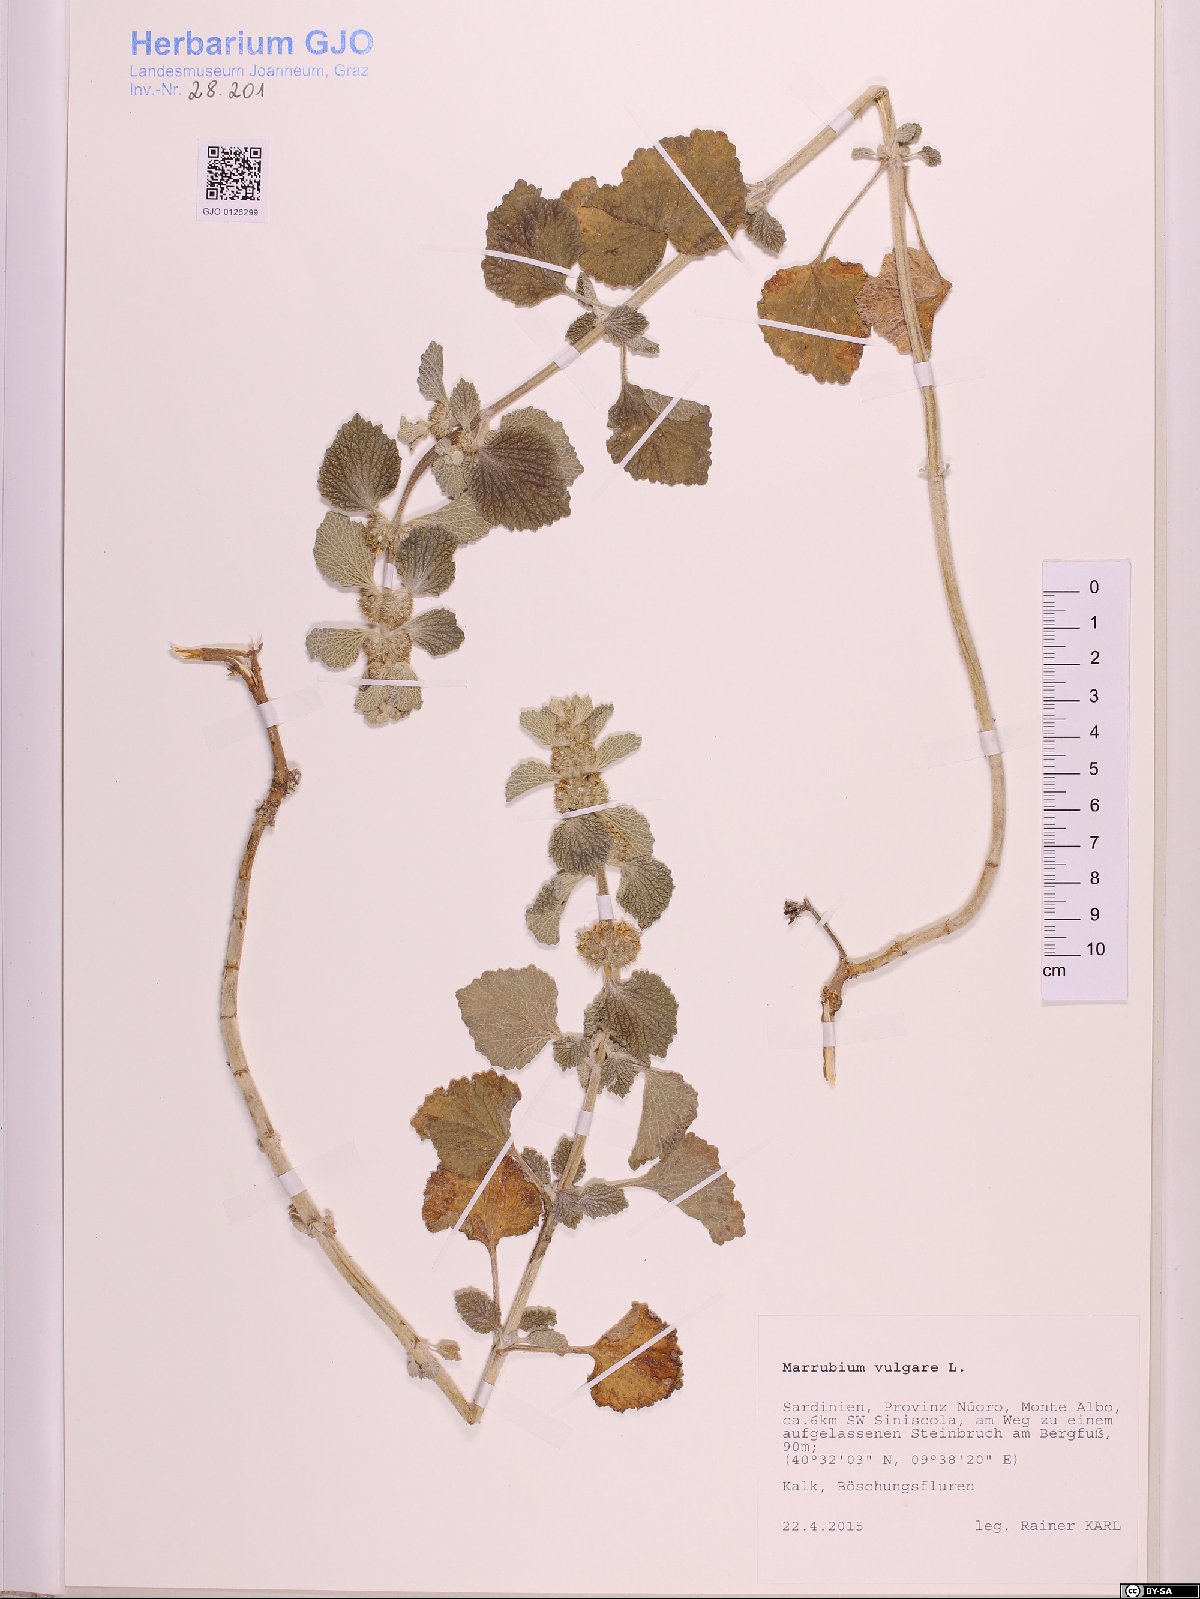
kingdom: Plantae
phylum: Tracheophyta
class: Magnoliopsida
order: Lamiales
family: Lamiaceae
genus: Marrubium
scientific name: Marrubium vulgare
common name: Horehound
